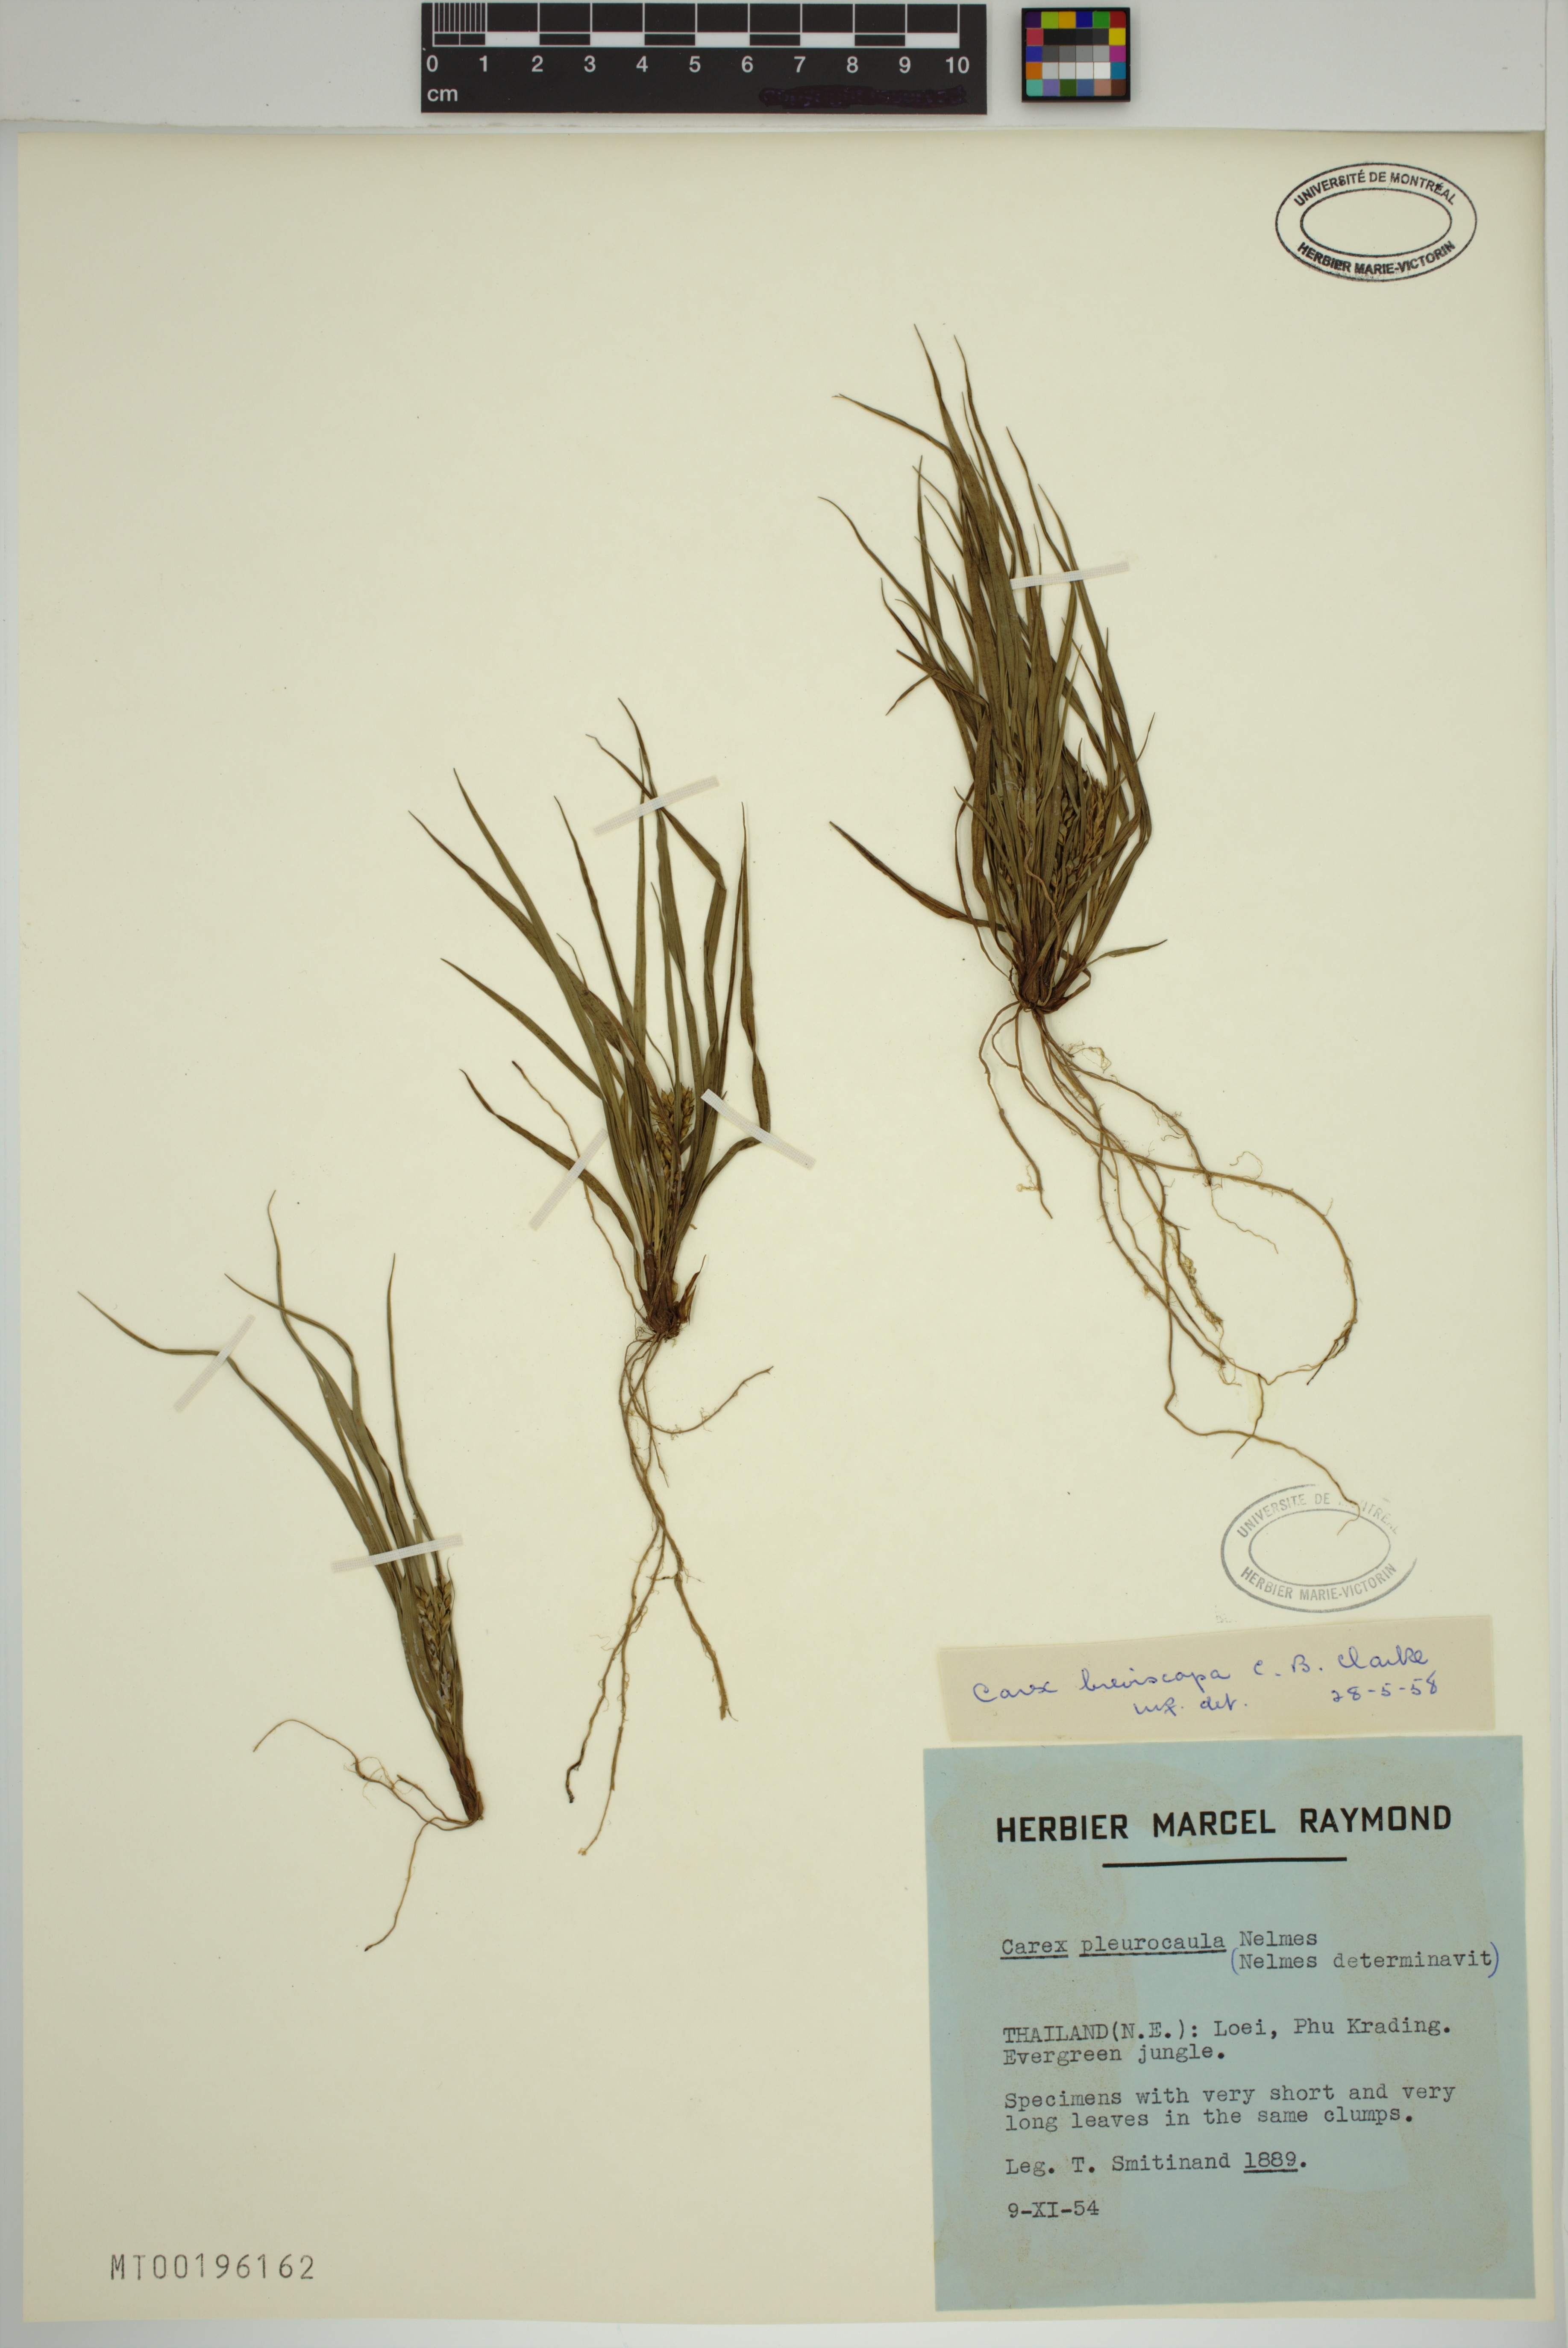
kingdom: Plantae
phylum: Tracheophyta
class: Liliopsida
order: Poales
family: Cyperaceae
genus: Carex
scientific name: Carex breviscapa
